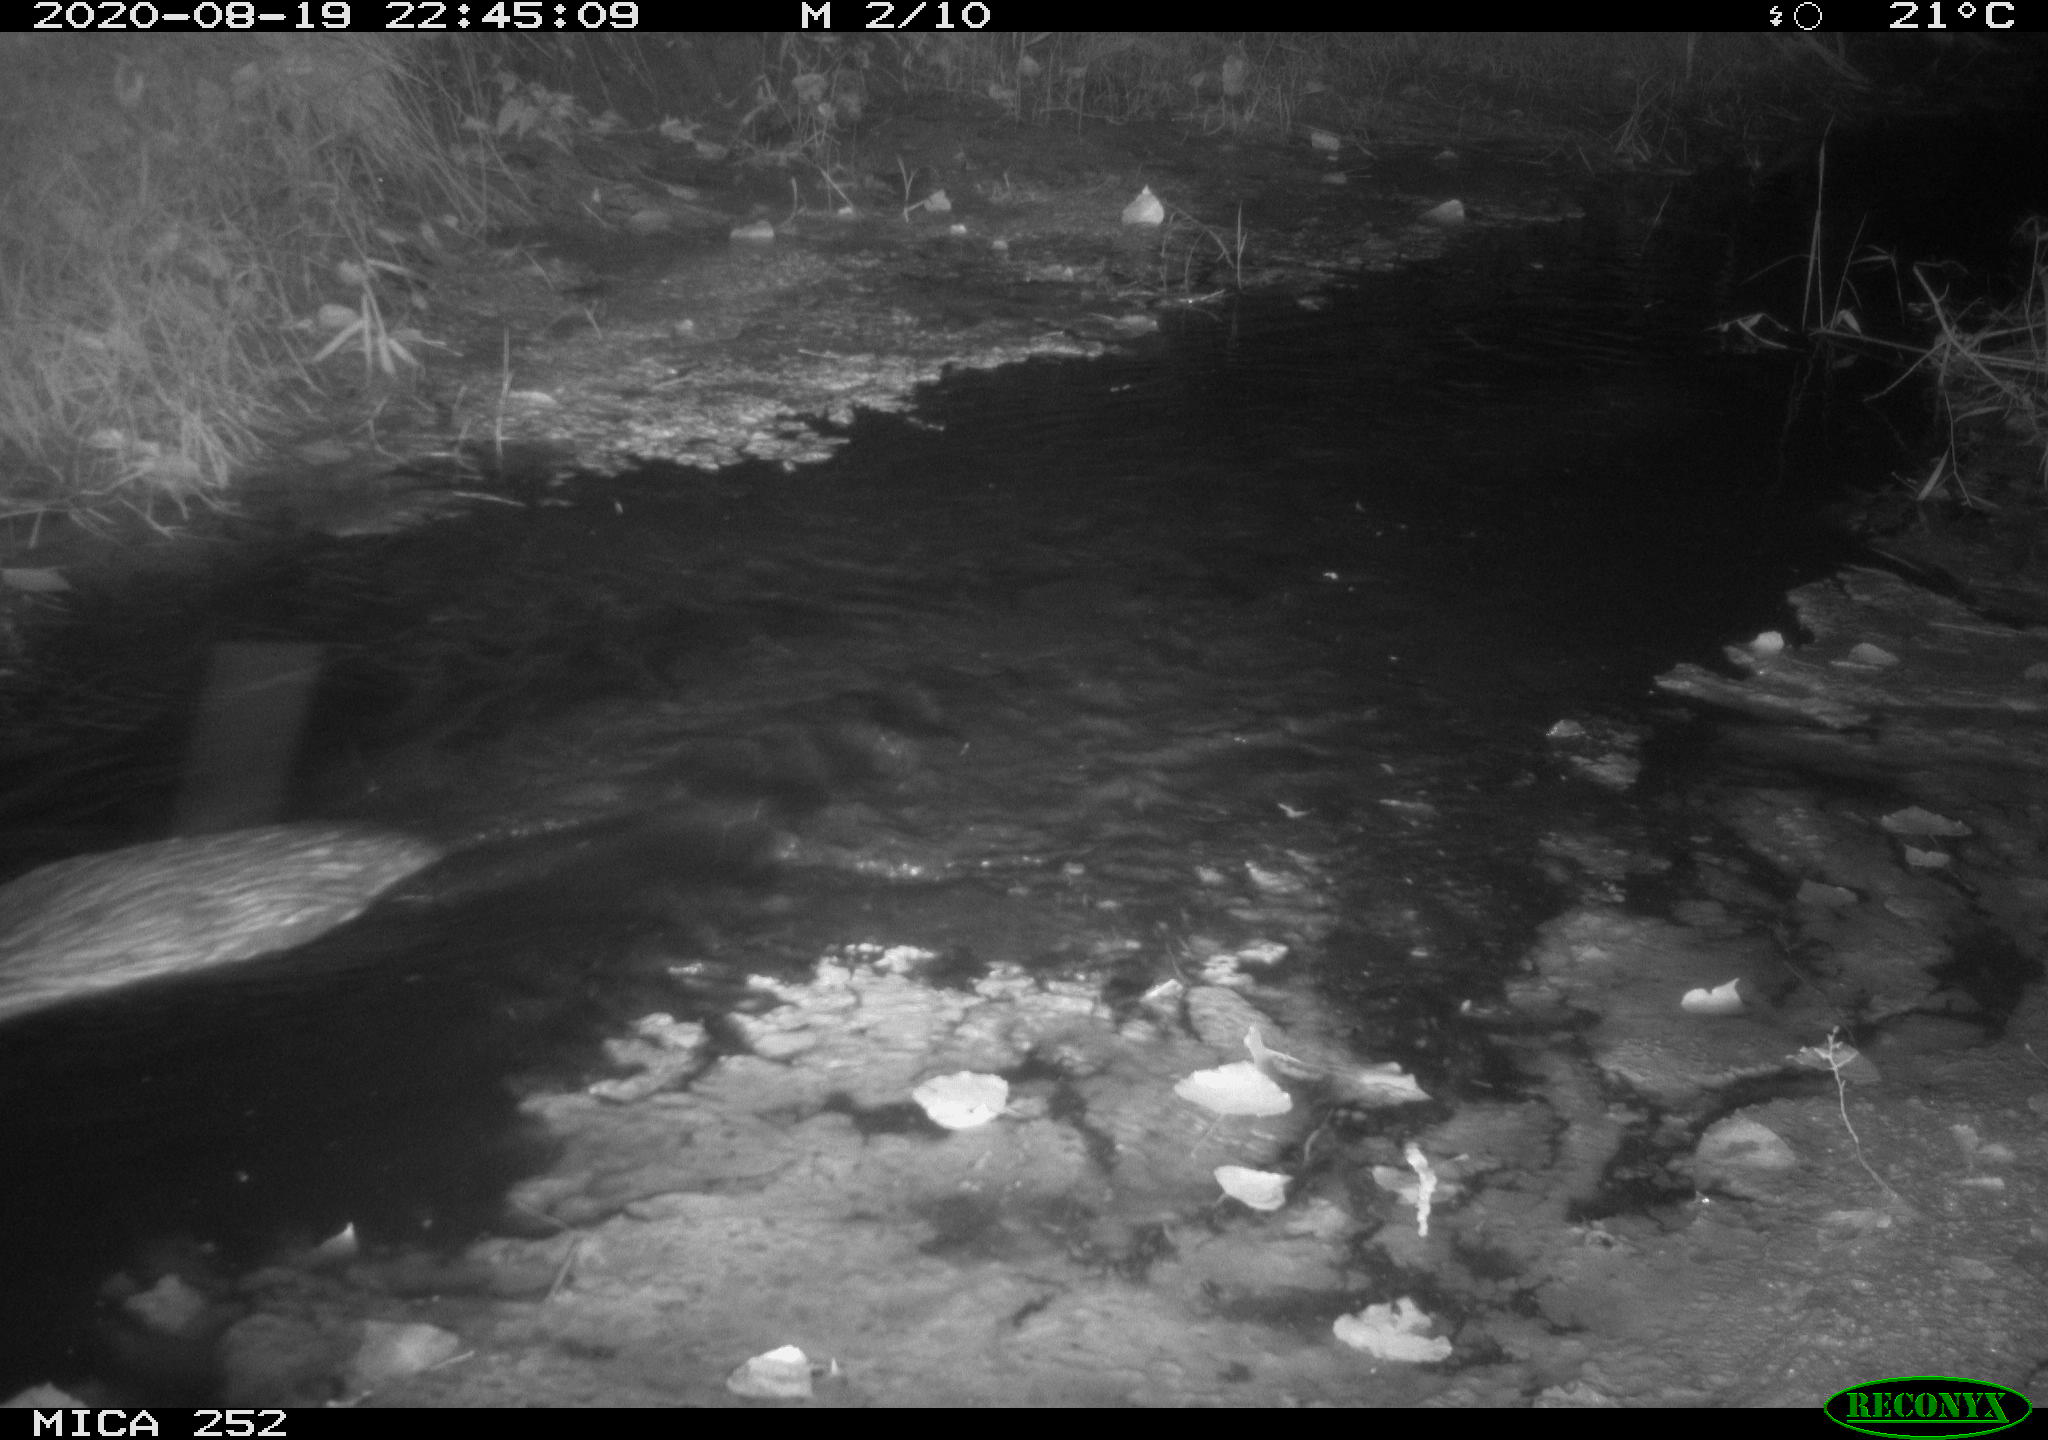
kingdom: Animalia
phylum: Chordata
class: Mammalia
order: Rodentia
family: Castoridae
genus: Castor
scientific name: Castor fiber
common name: Eurasian beaver
